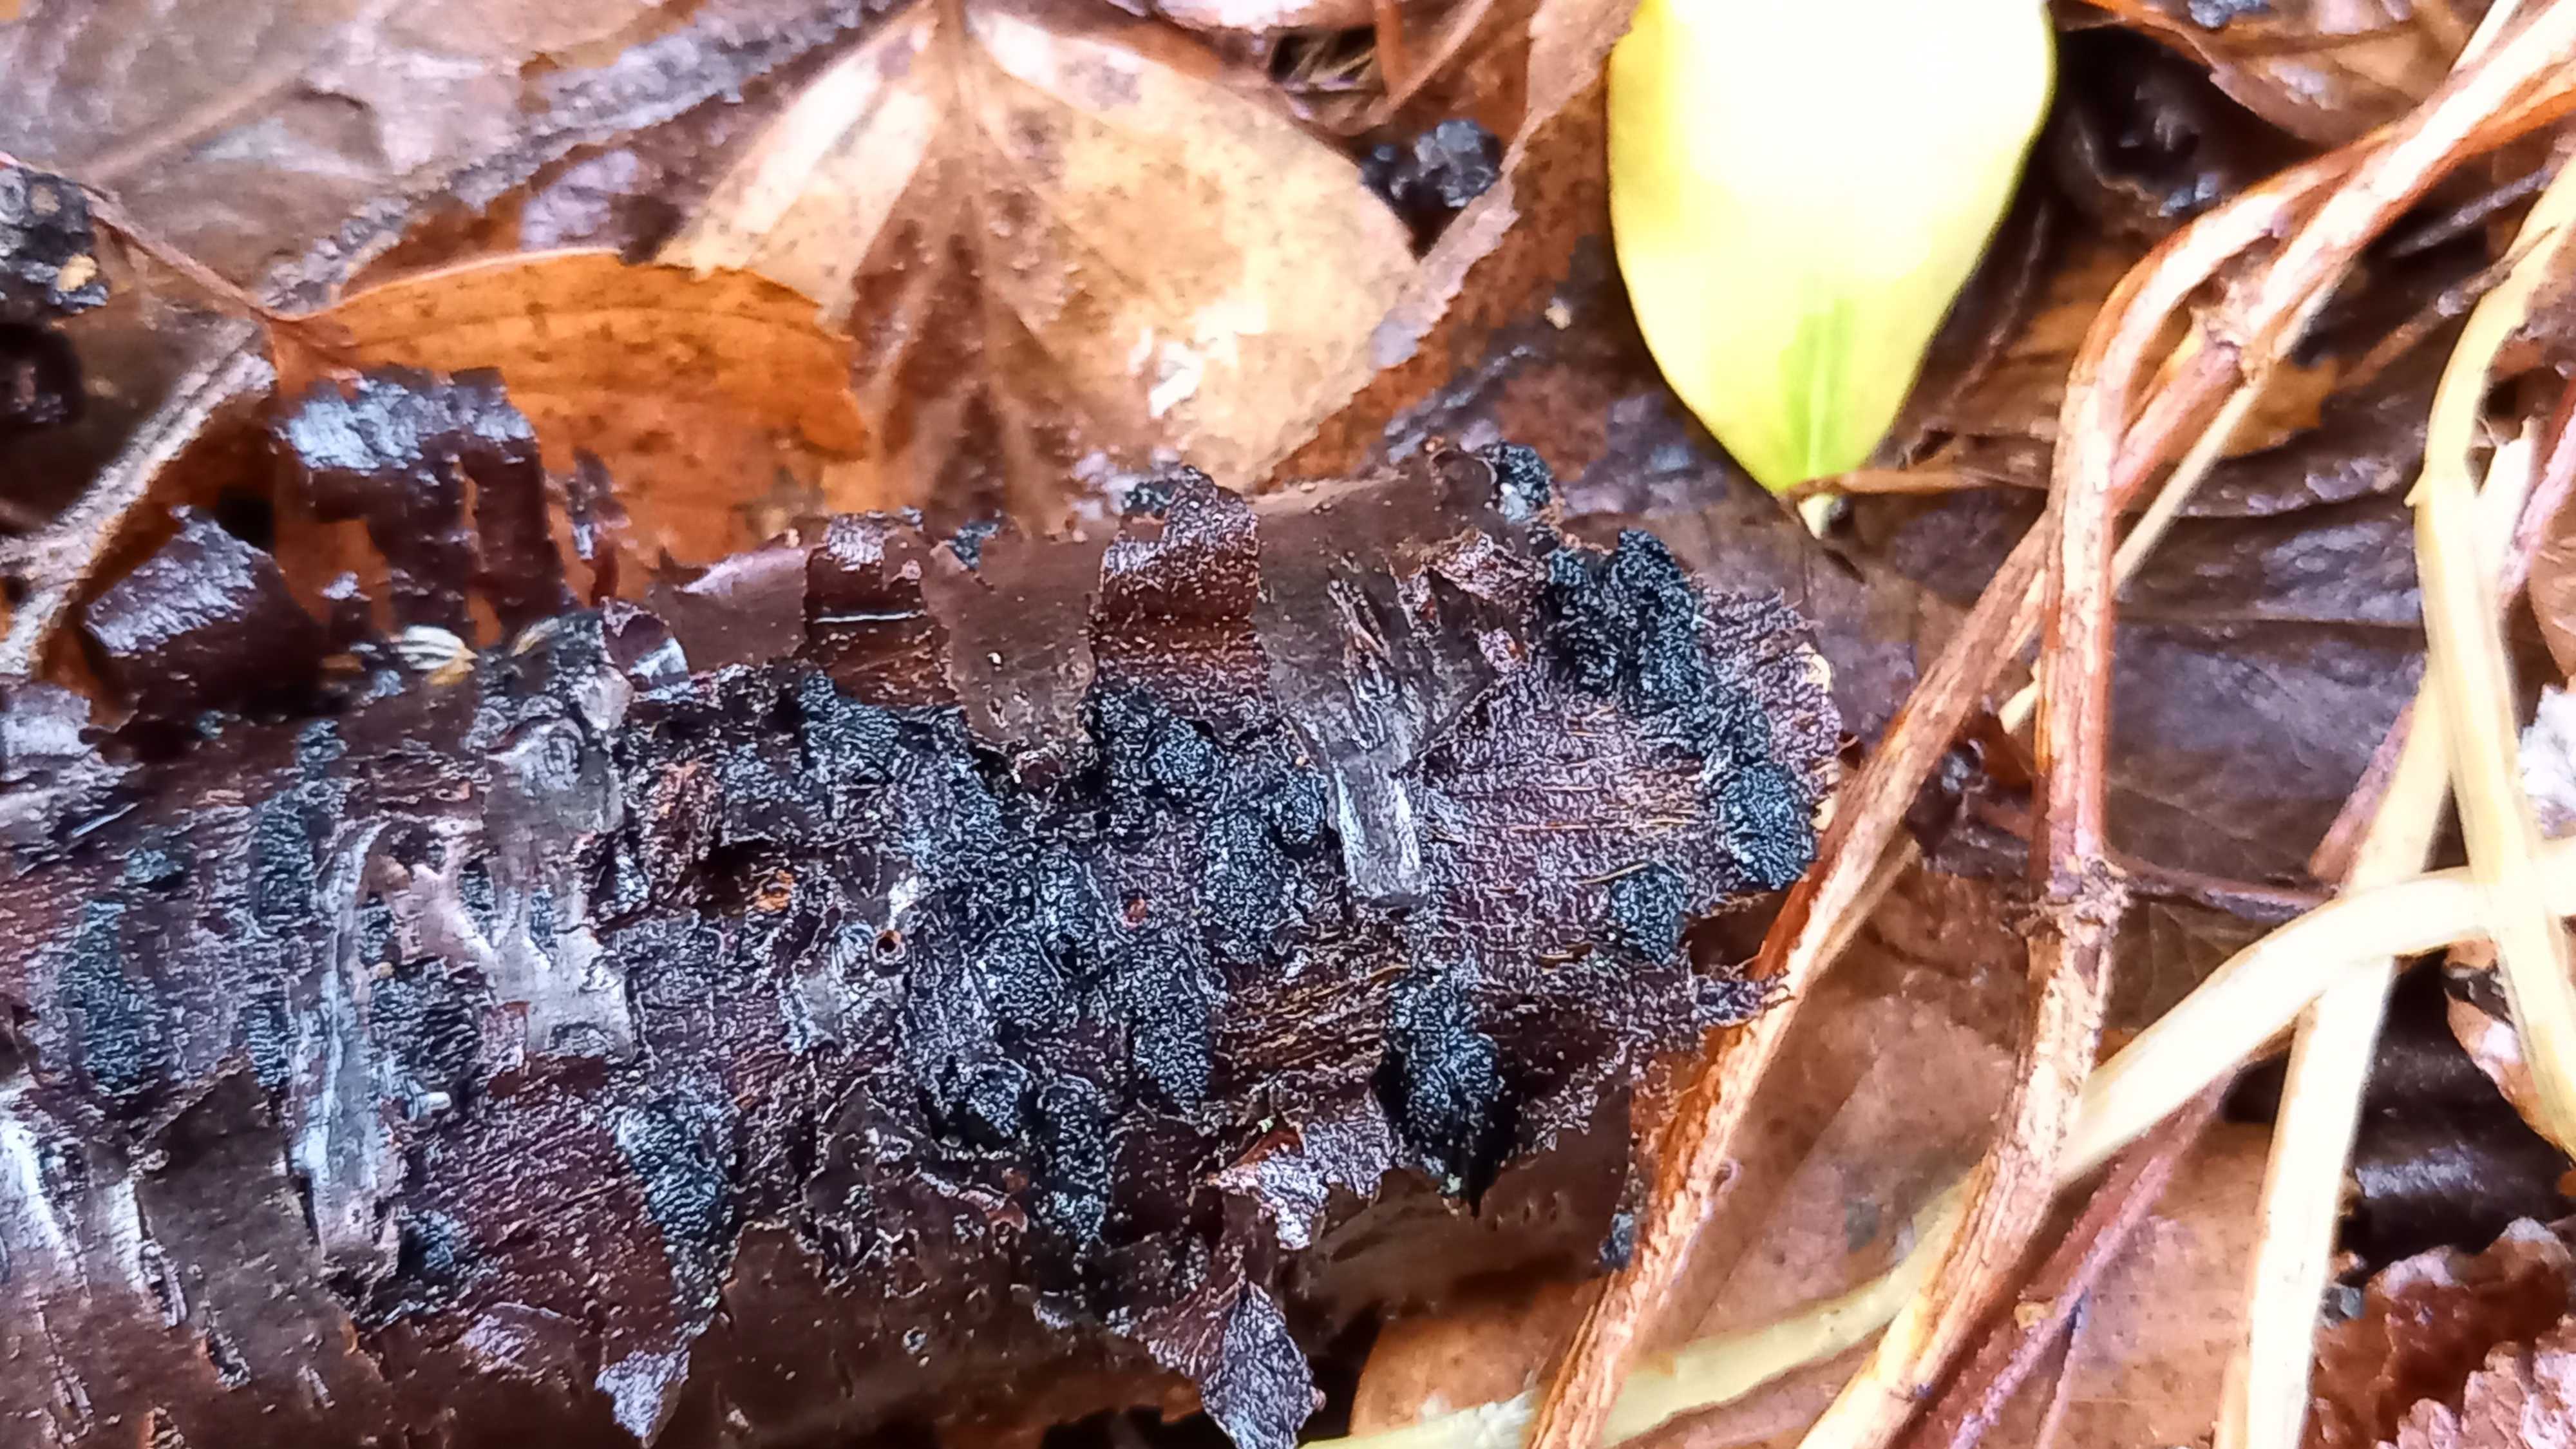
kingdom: Fungi
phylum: Ascomycota
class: Sordariomycetes
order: Xylariales
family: Diatrypaceae
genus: Eutypella
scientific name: Eutypella prunastri
